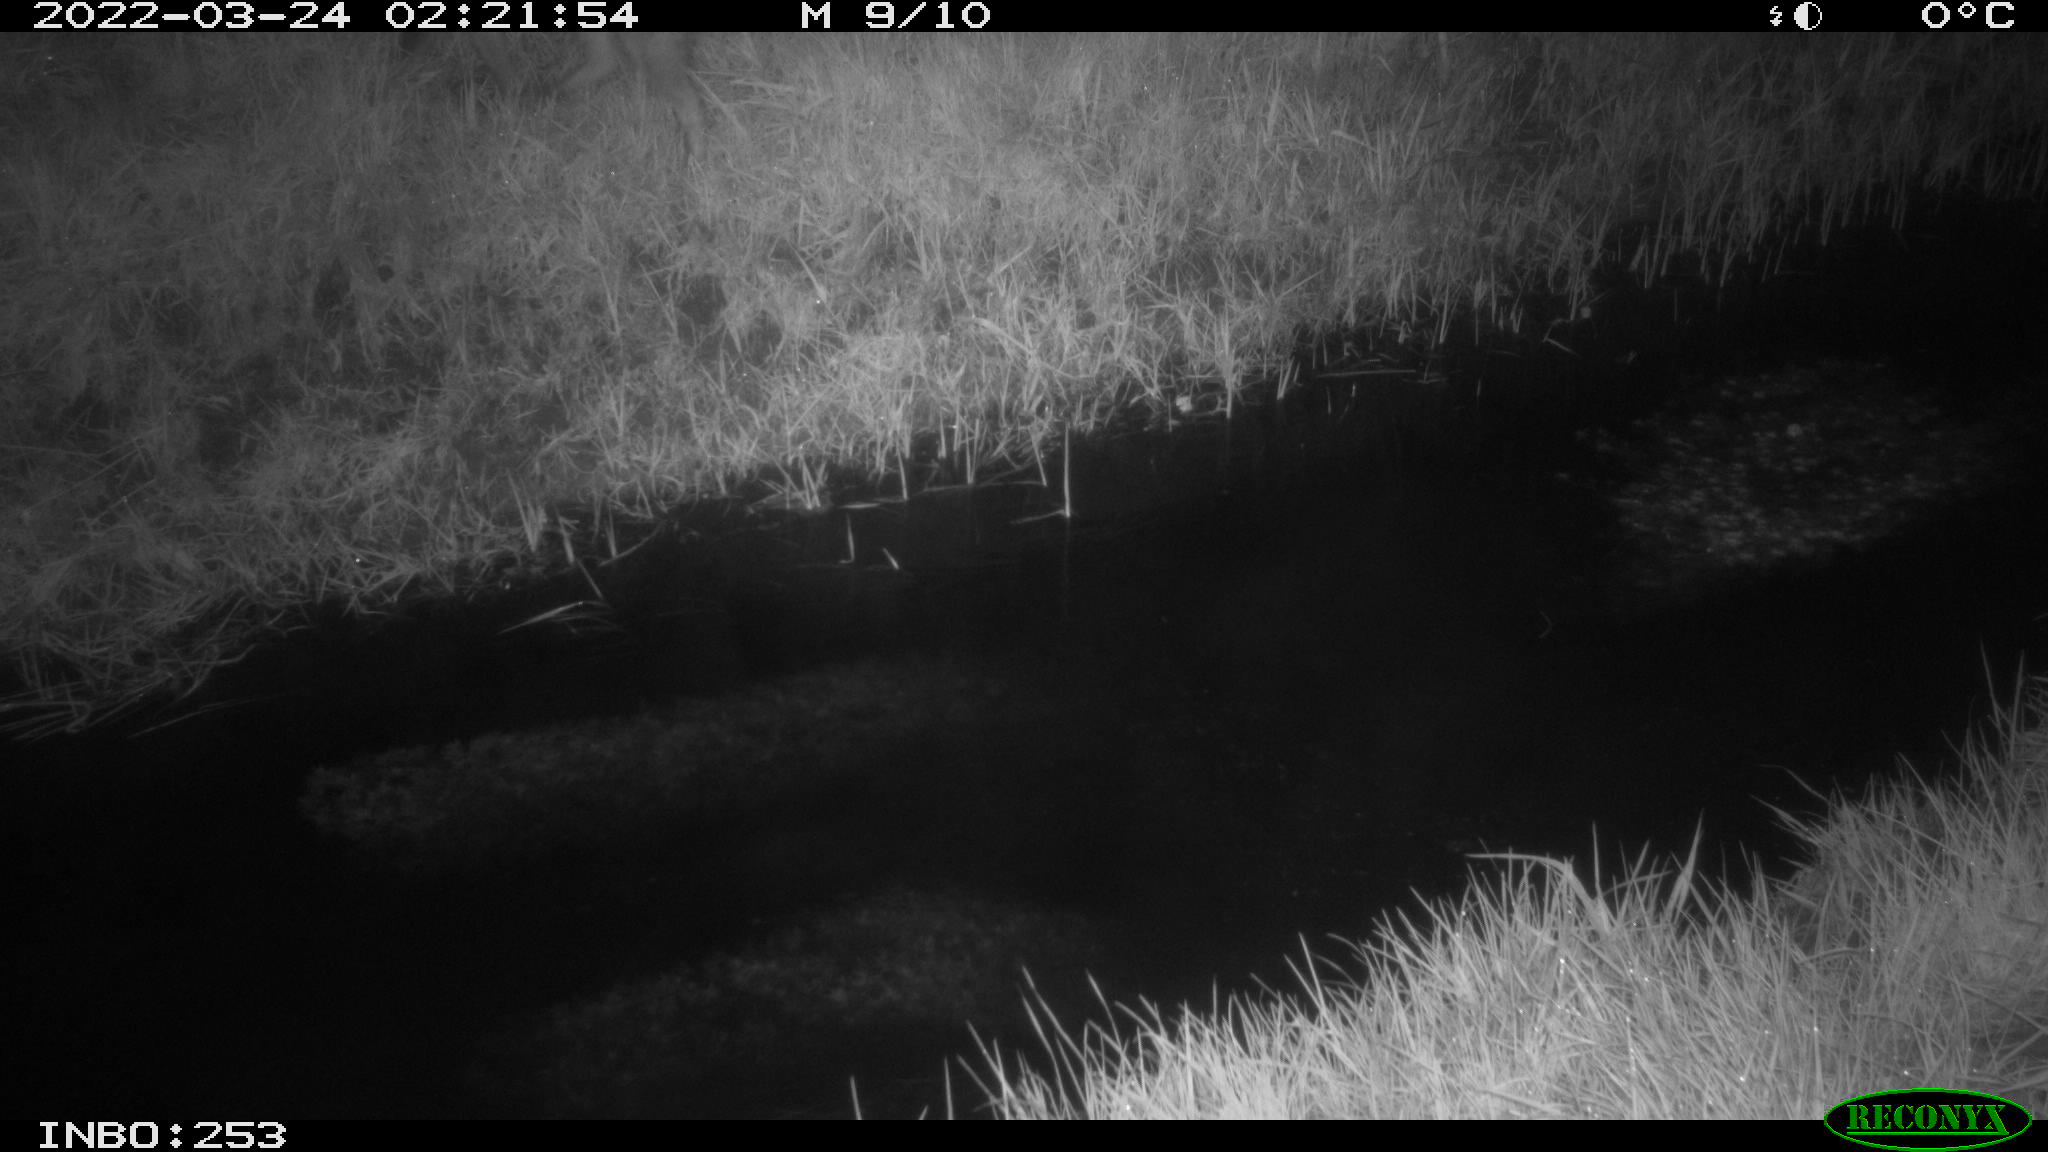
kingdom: Animalia
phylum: Chordata
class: Mammalia
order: Carnivora
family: Canidae
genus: Vulpes
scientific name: Vulpes vulpes
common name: Red fox
